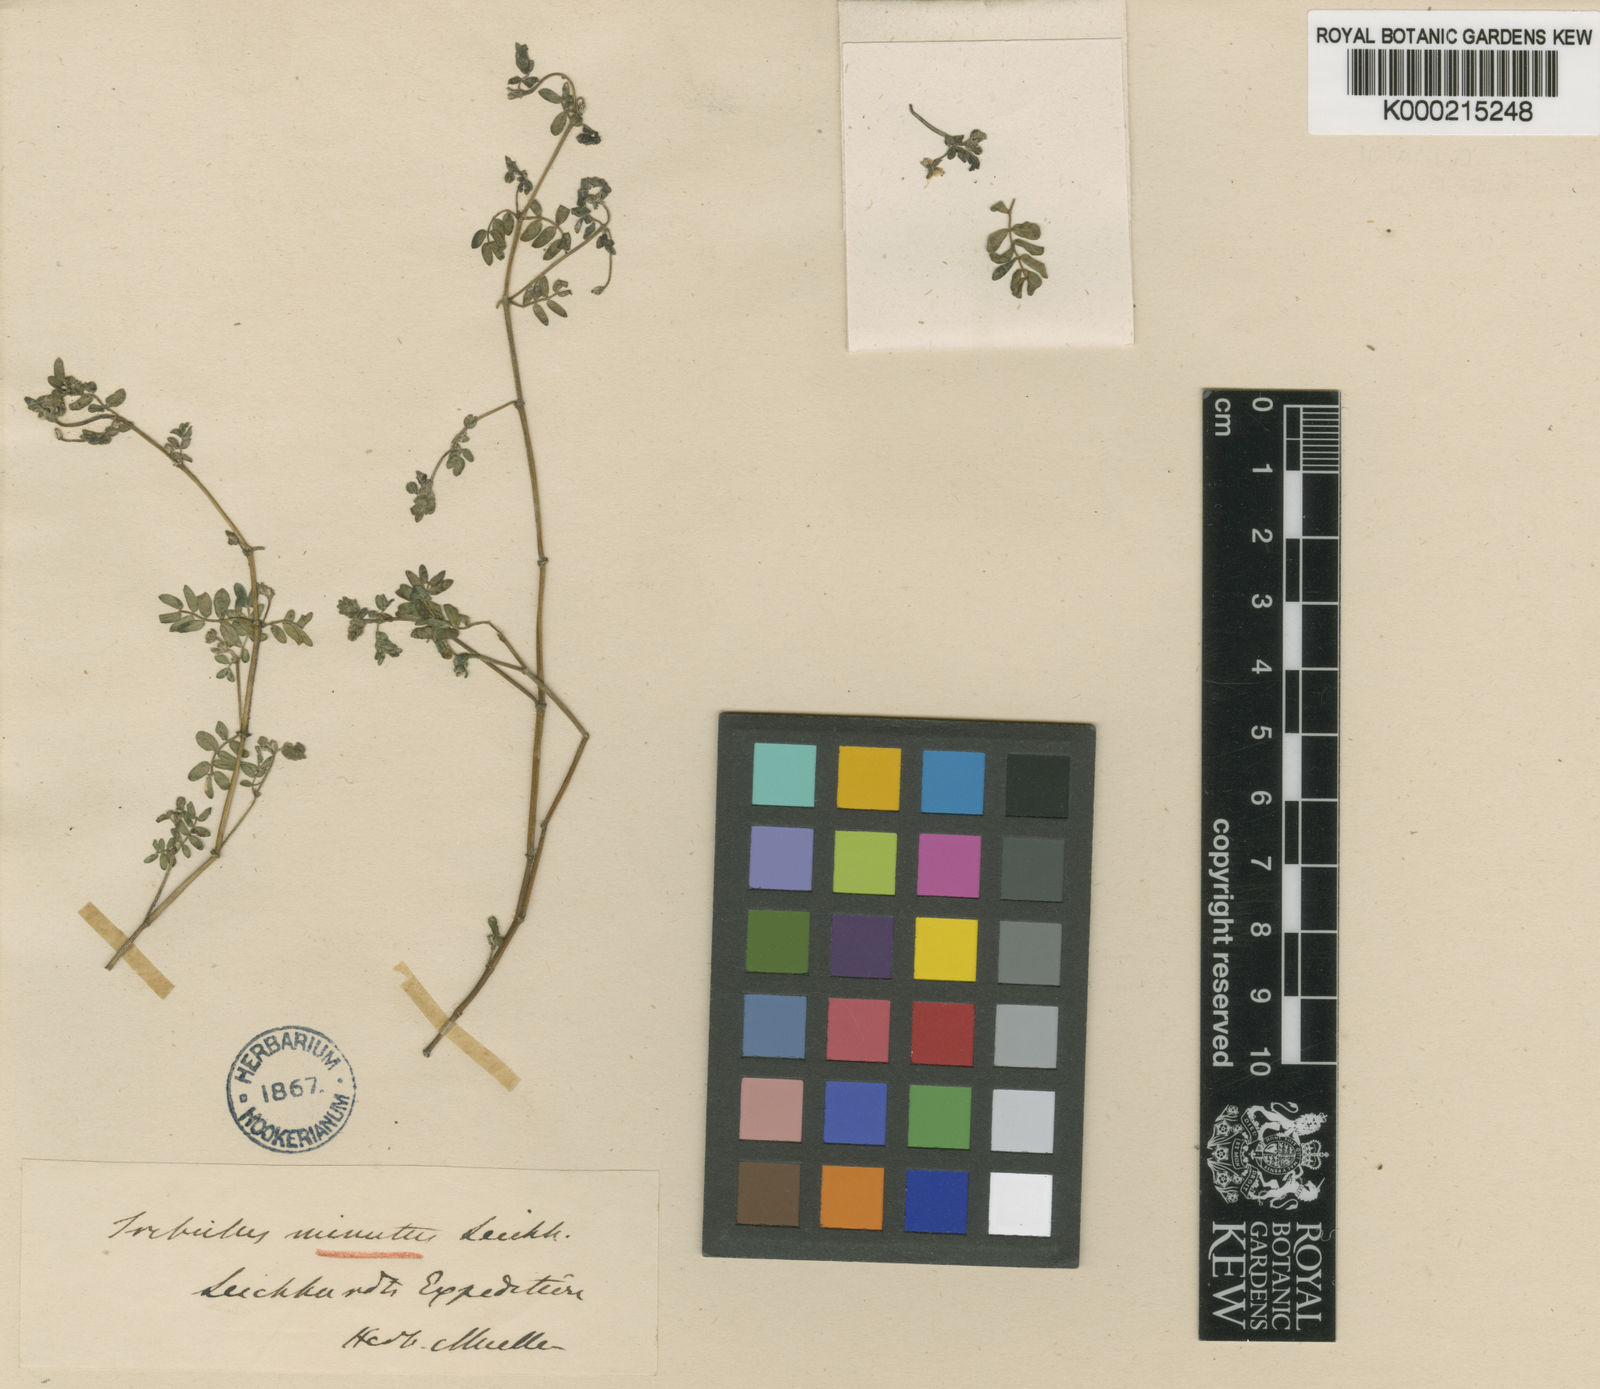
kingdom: Plantae
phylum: Tracheophyta
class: Magnoliopsida
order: Zygophyllales
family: Zygophyllaceae
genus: Tribulus
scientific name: Tribulus minutus
